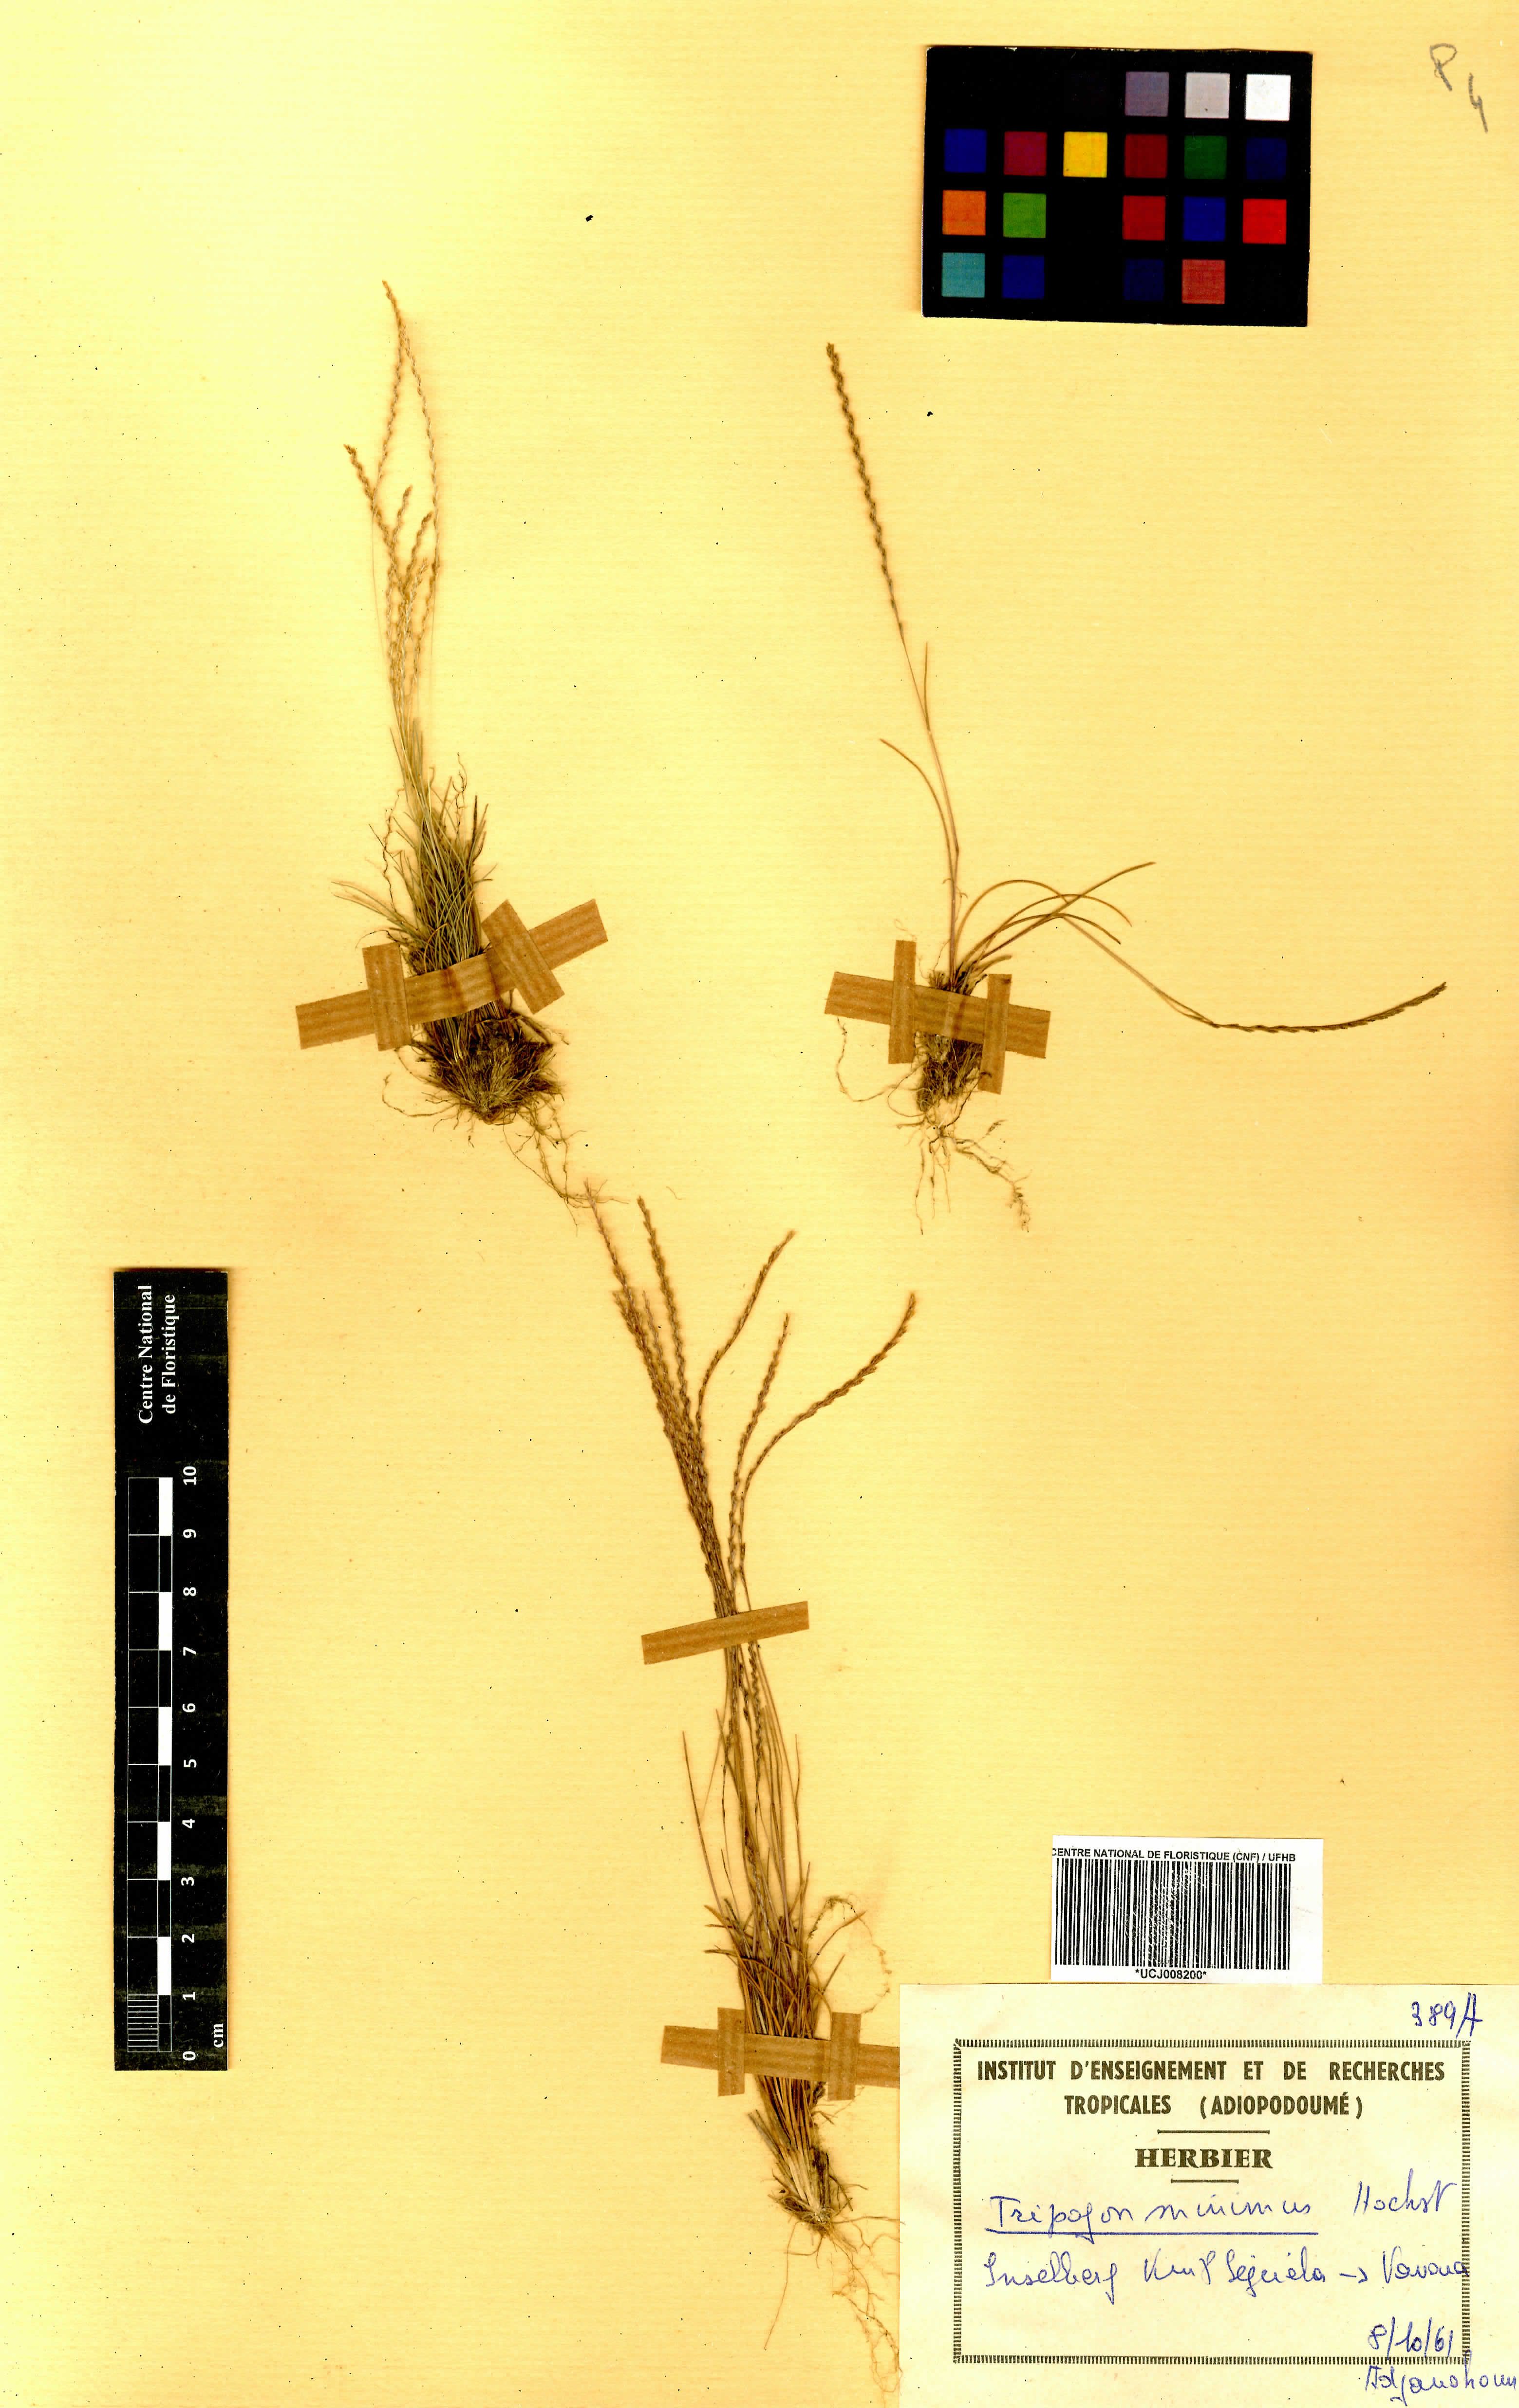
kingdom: Plantae
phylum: Tracheophyta
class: Liliopsida
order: Poales
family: Poaceae
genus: Tripogonella
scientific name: Tripogonella minima
